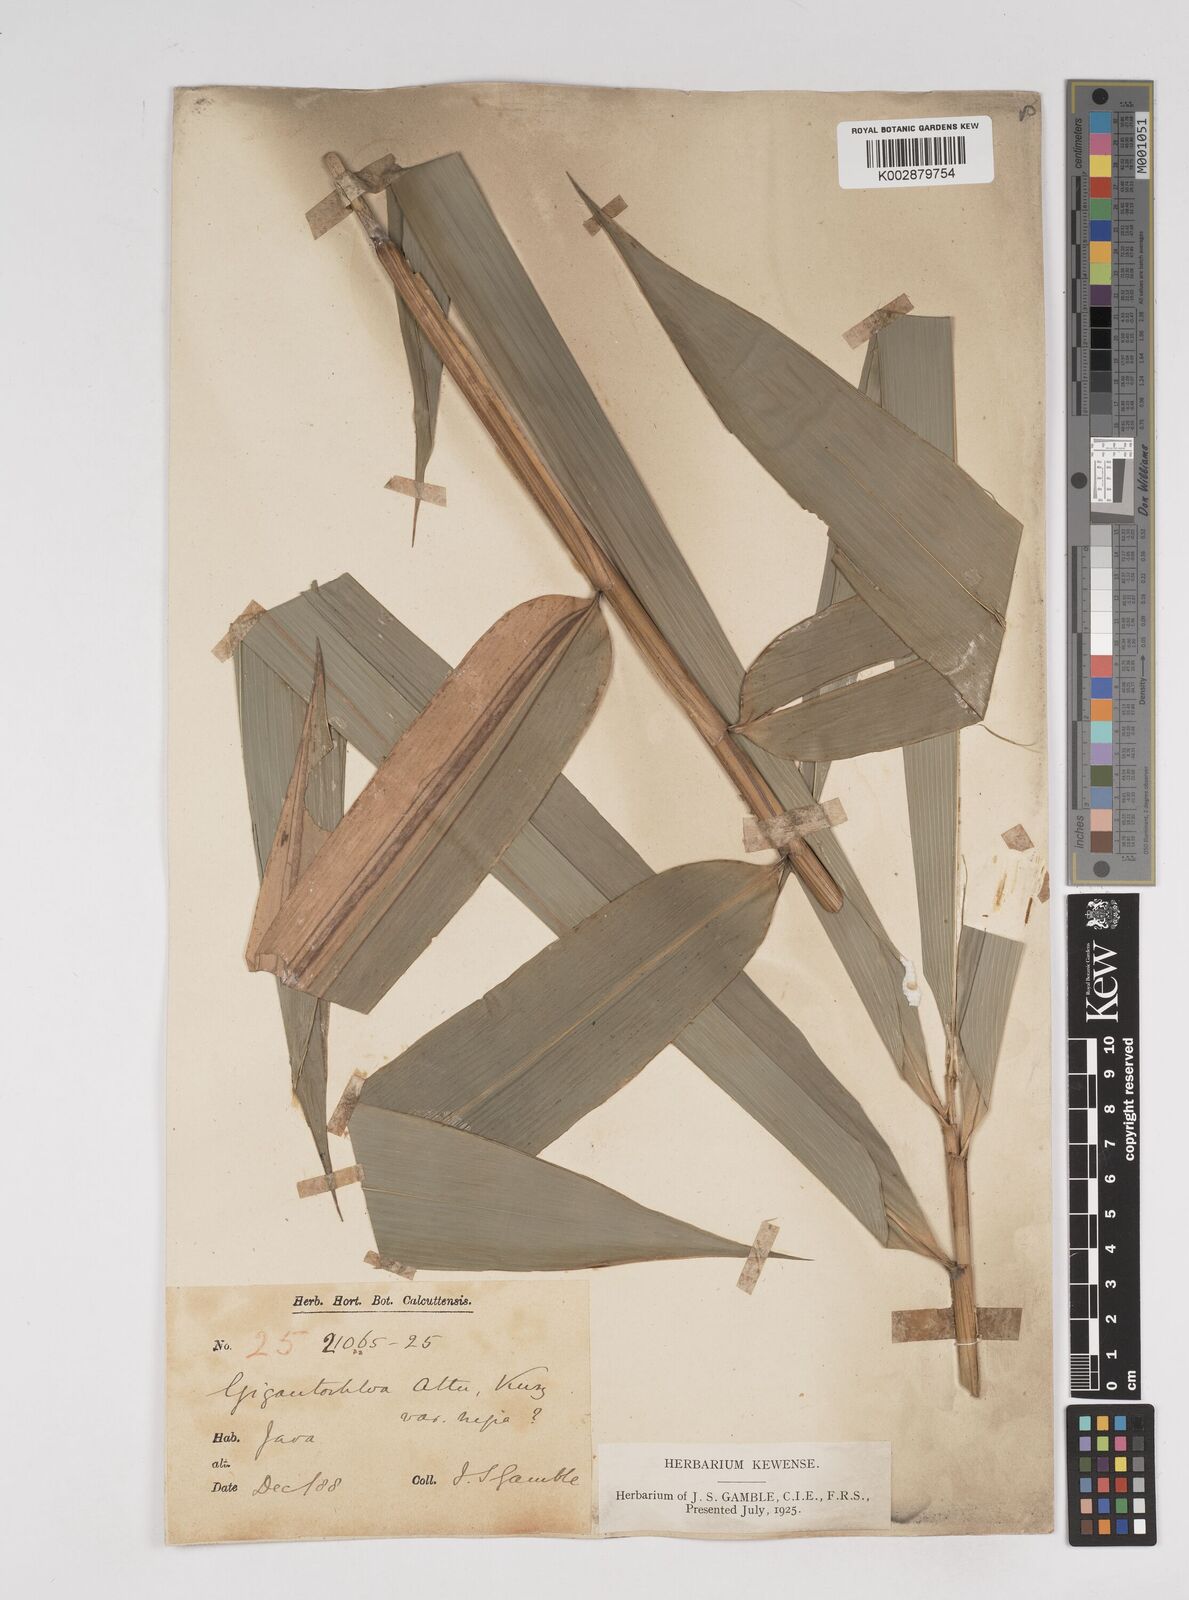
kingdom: Plantae
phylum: Tracheophyta
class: Liliopsida
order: Poales
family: Poaceae
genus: Gigantochloa
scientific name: Gigantochloa atter
